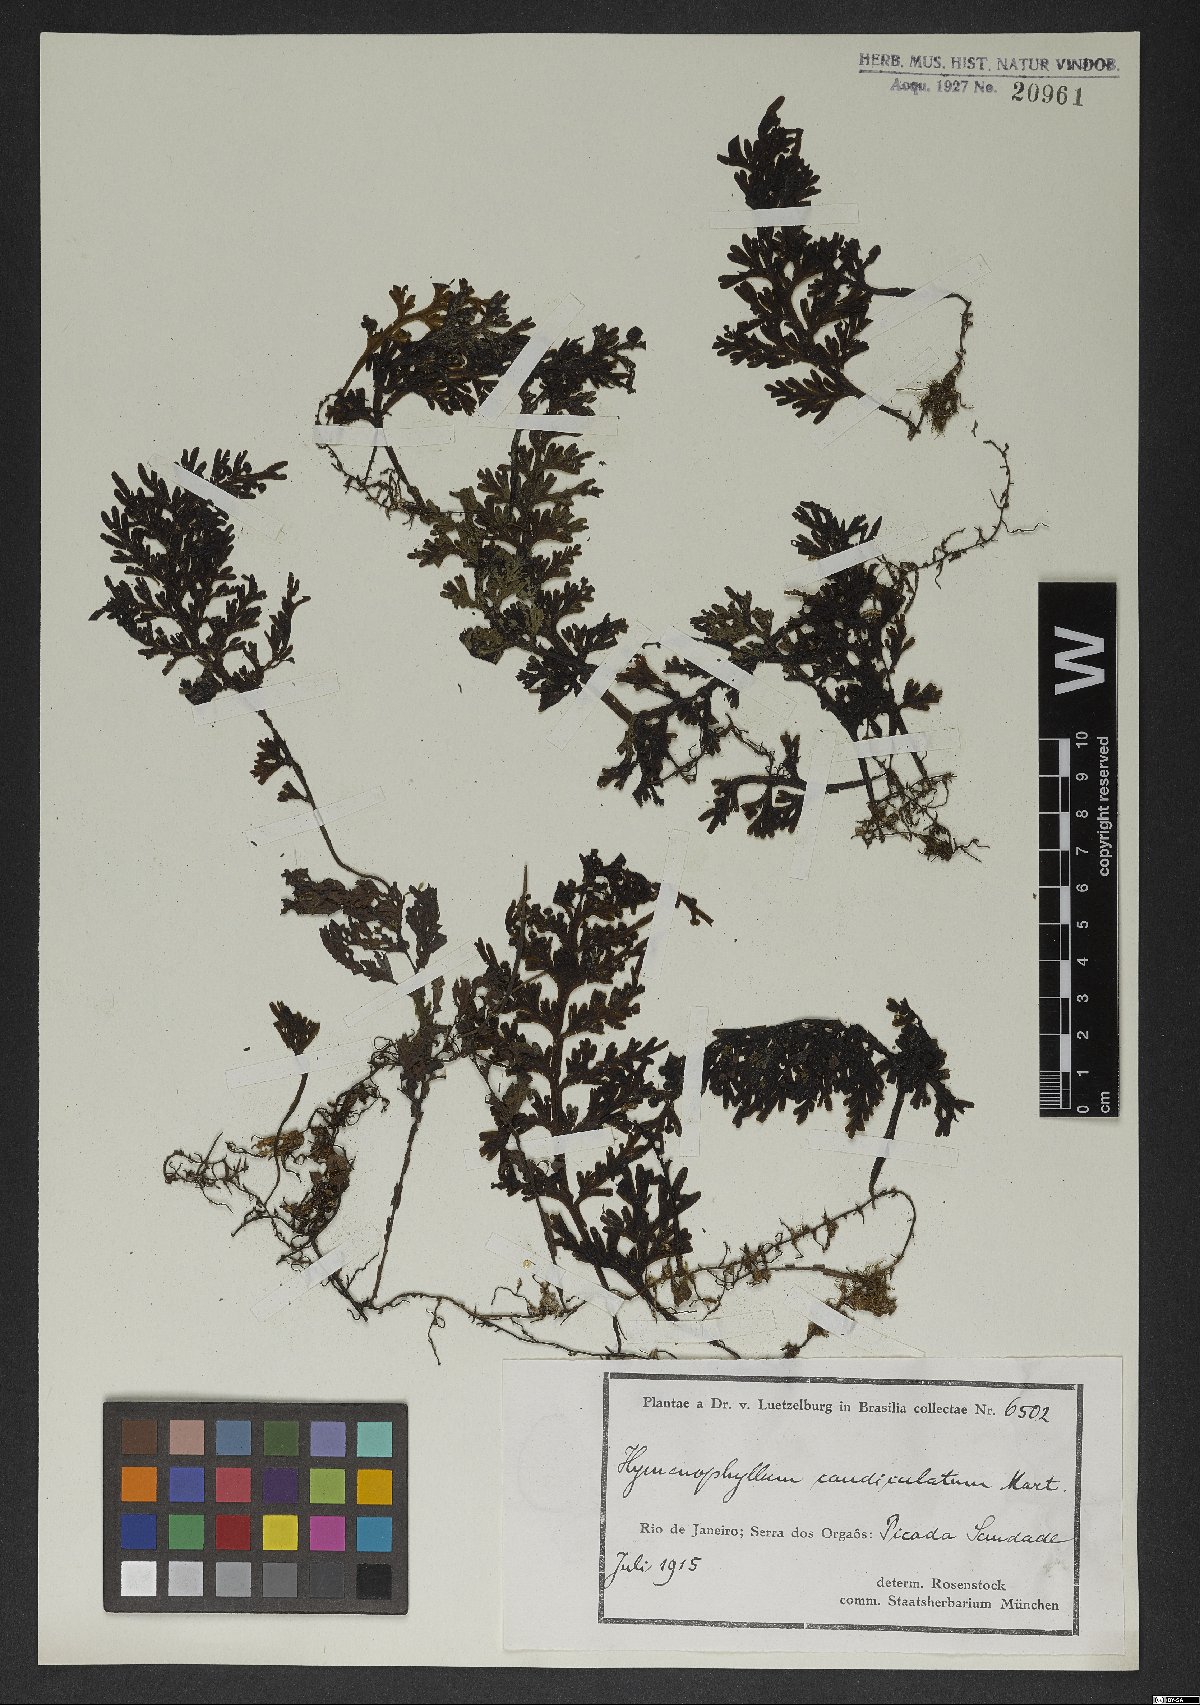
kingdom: Plantae
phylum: Tracheophyta
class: Polypodiopsida
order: Hymenophyllales
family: Hymenophyllaceae
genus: Hymenophyllum
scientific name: Hymenophyllum caudiculatum
